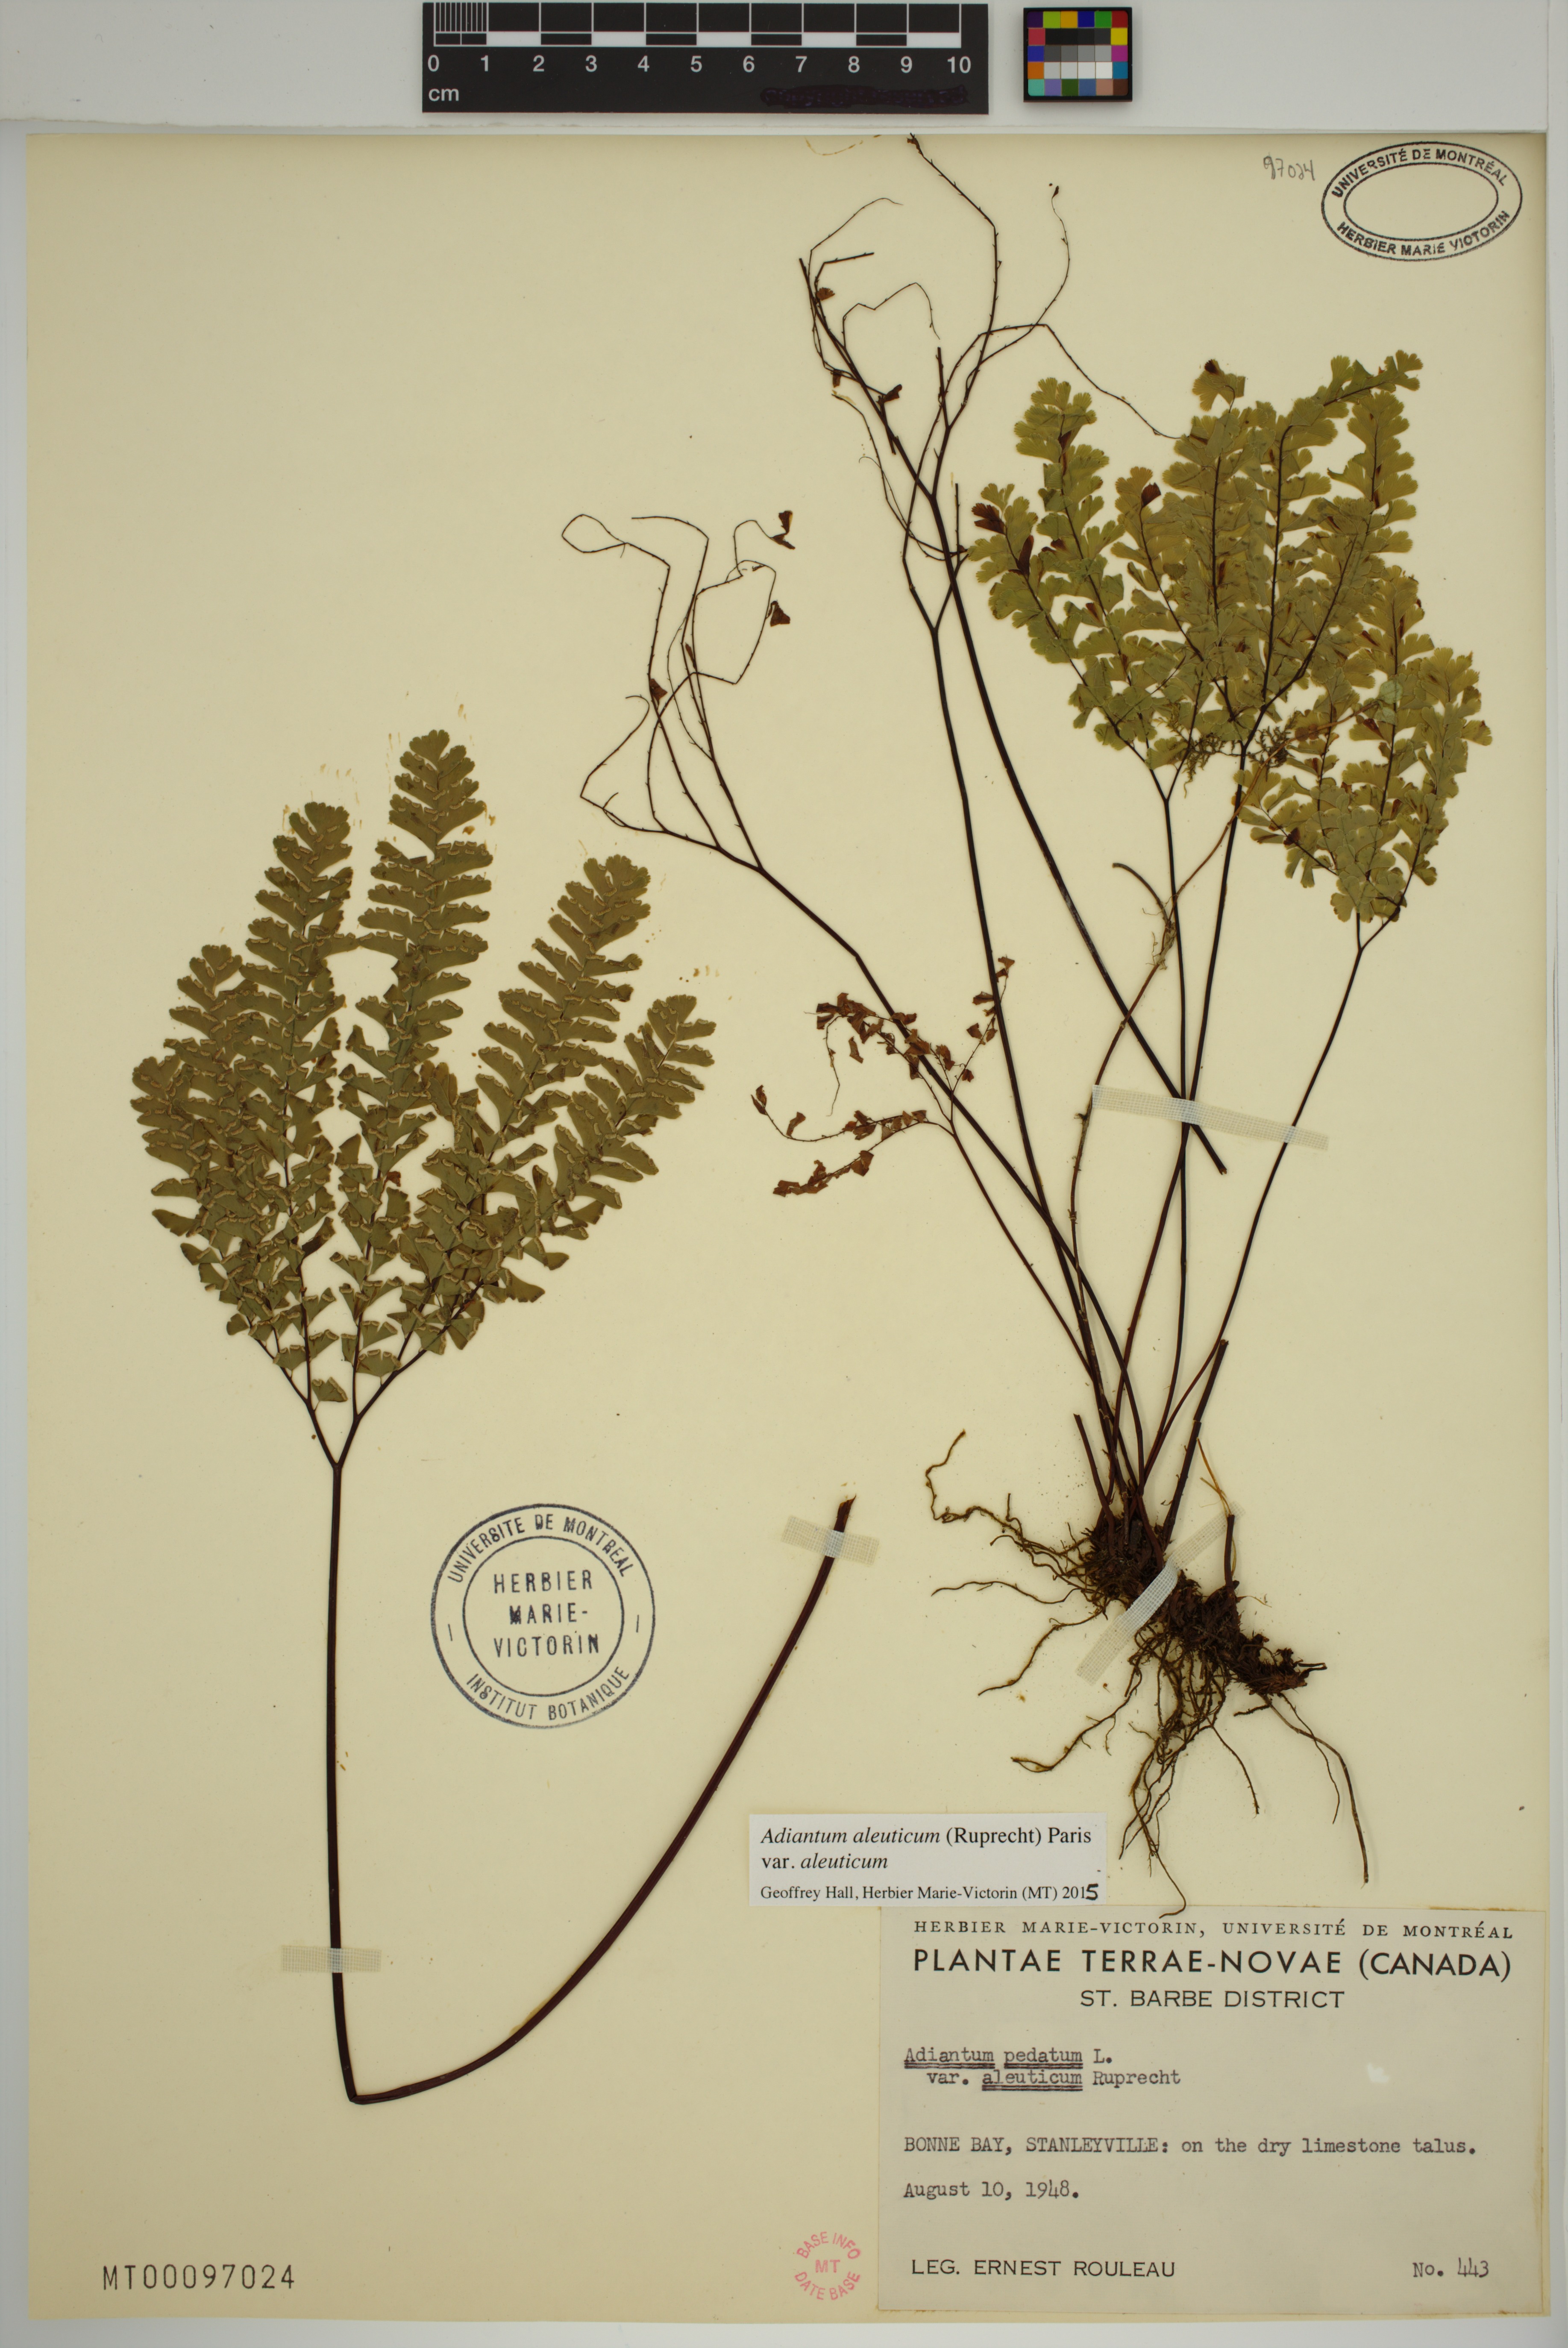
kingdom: Plantae
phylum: Tracheophyta
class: Polypodiopsida
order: Polypodiales
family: Pteridaceae
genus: Adiantum
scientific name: Adiantum aleuticum
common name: Aleutian maidenhair fern
